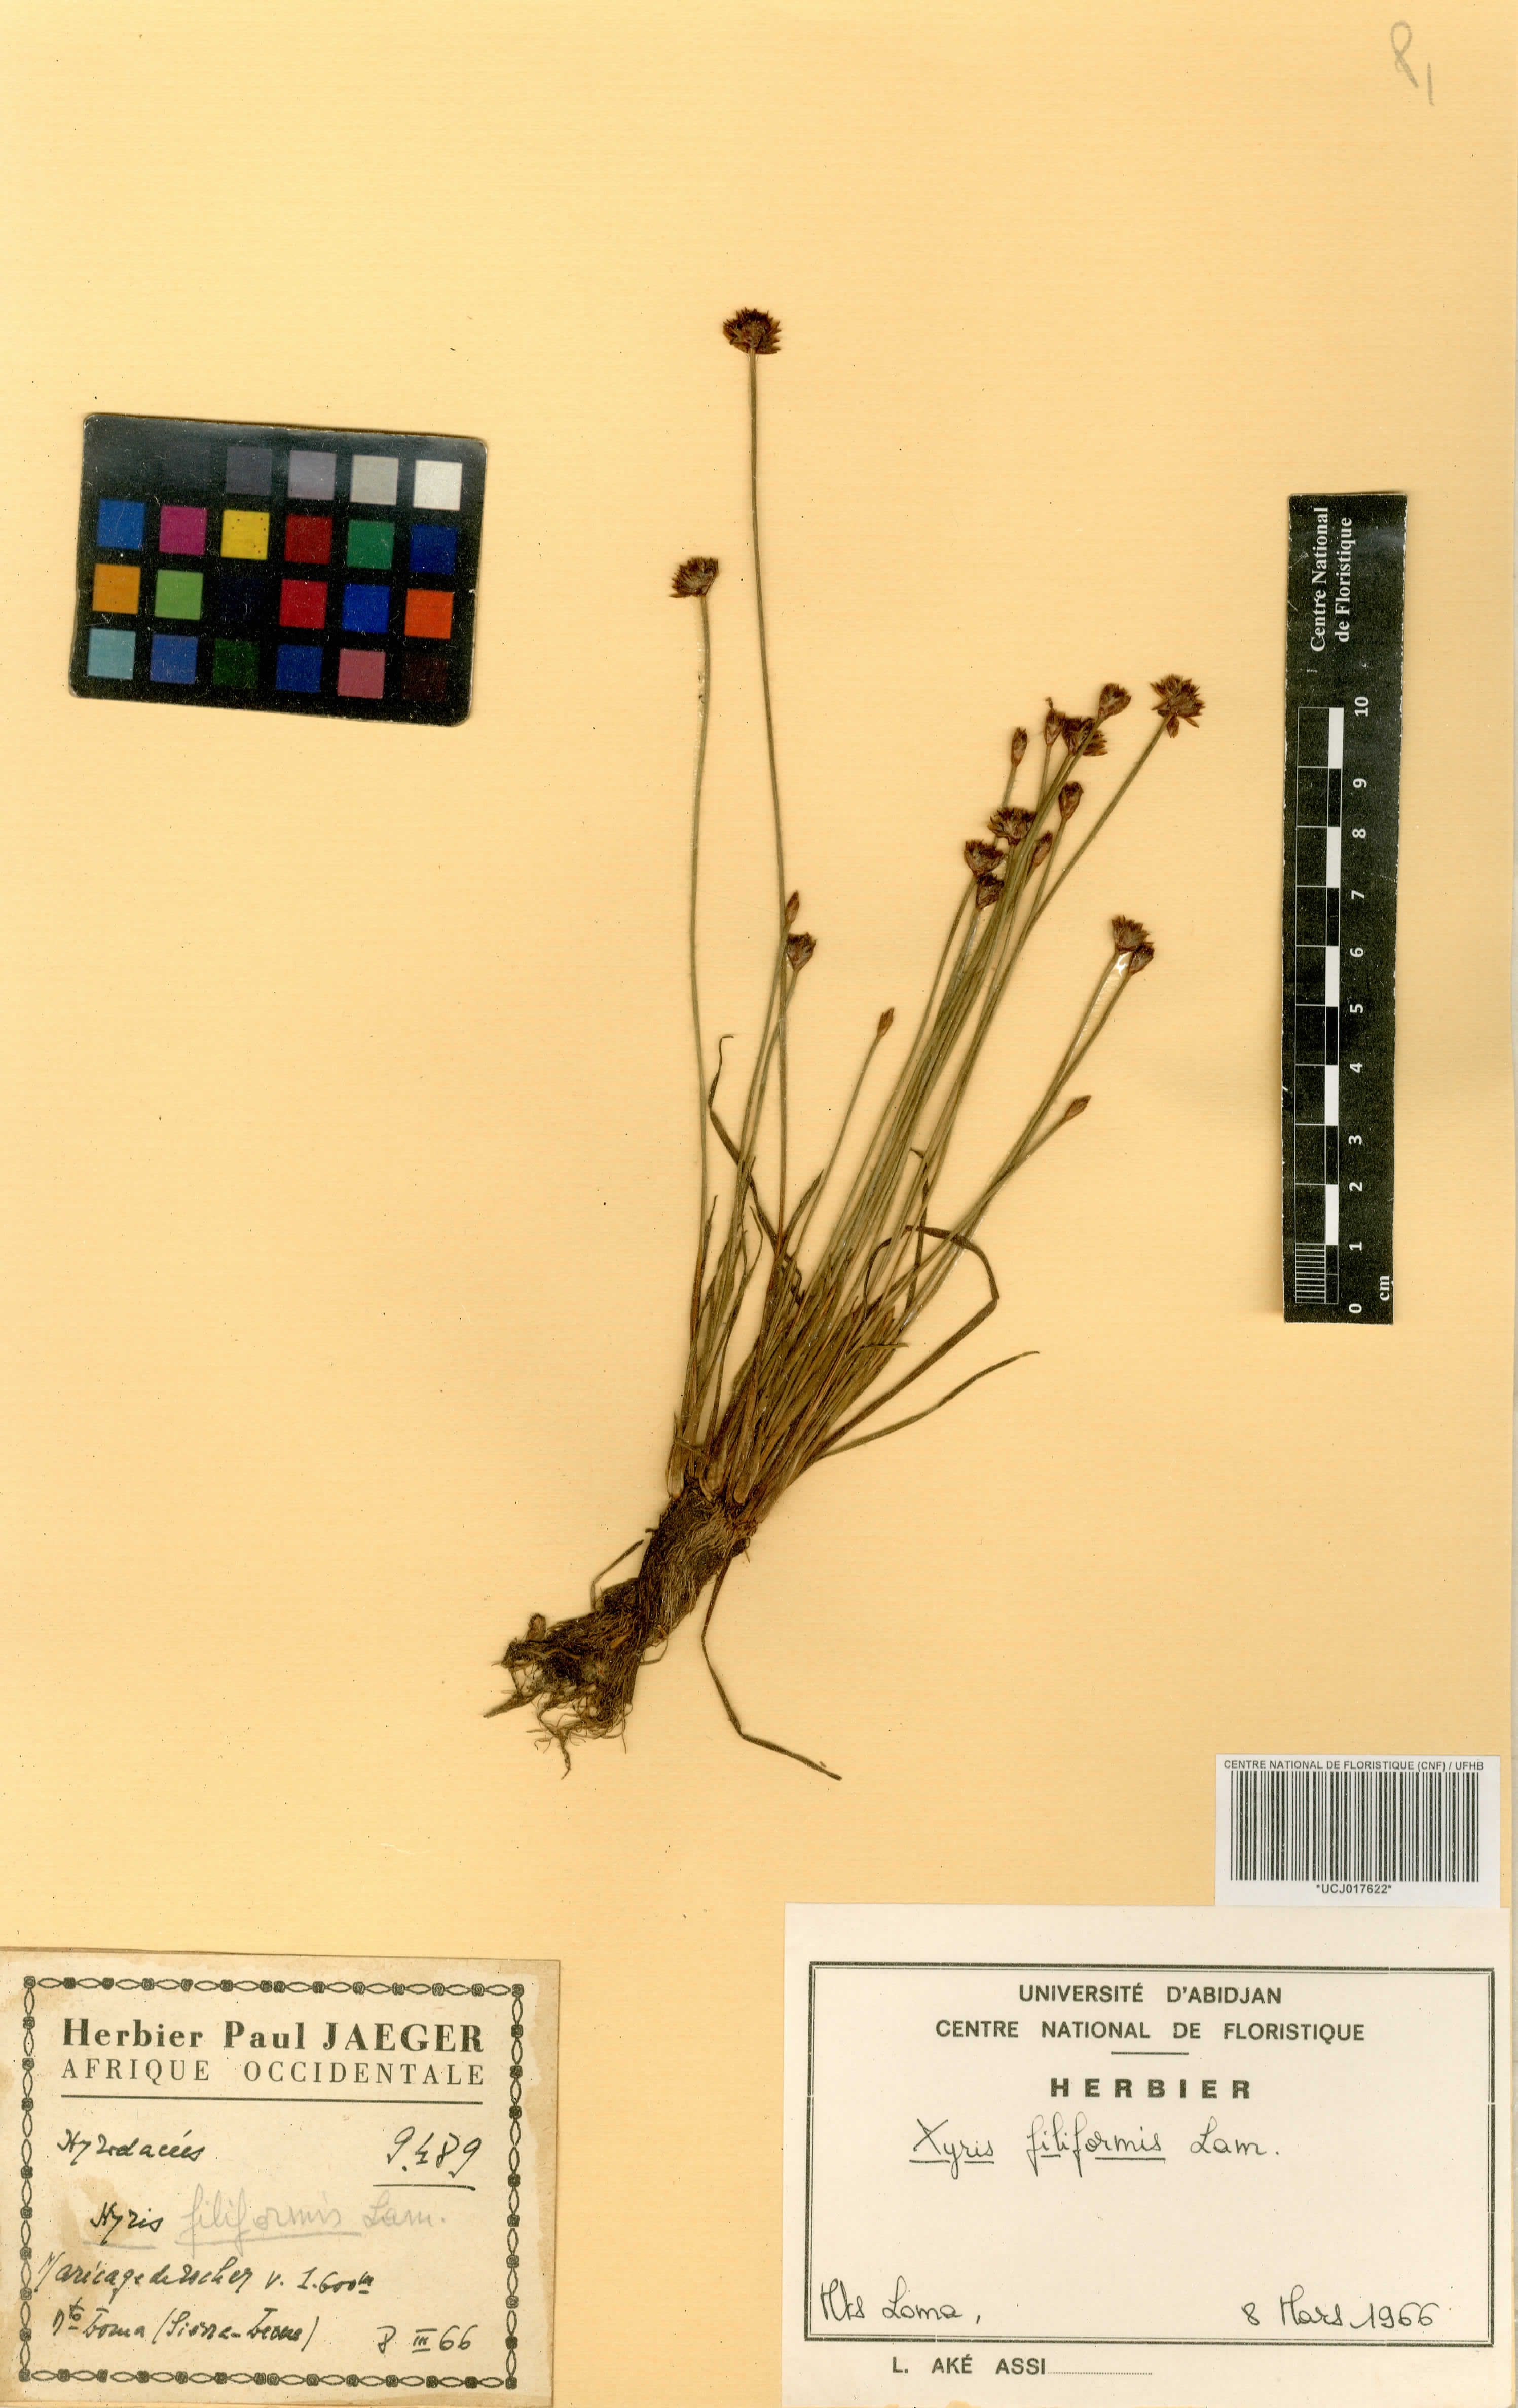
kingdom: Plantae
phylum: Tracheophyta
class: Liliopsida
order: Poales
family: Xyridaceae
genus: Xyris
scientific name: Xyris filiformis
